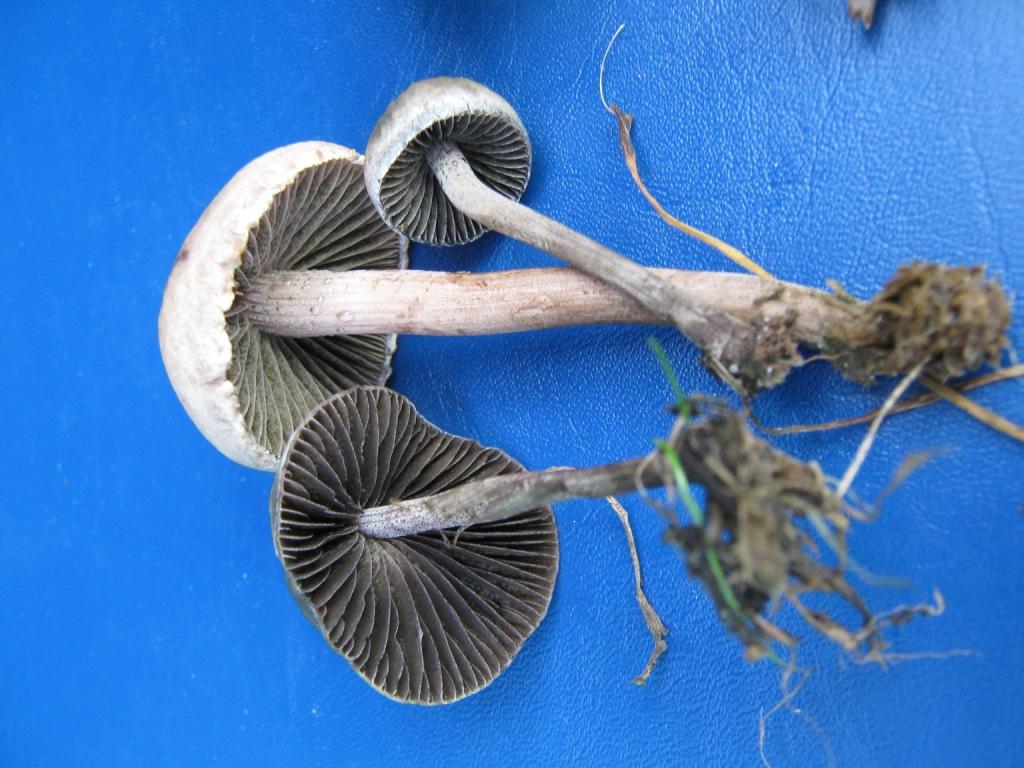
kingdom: Fungi
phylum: Basidiomycota
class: Agaricomycetes
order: Agaricales
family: Bolbitiaceae
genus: Panaeolus
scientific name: Panaeolus papilionaceus
